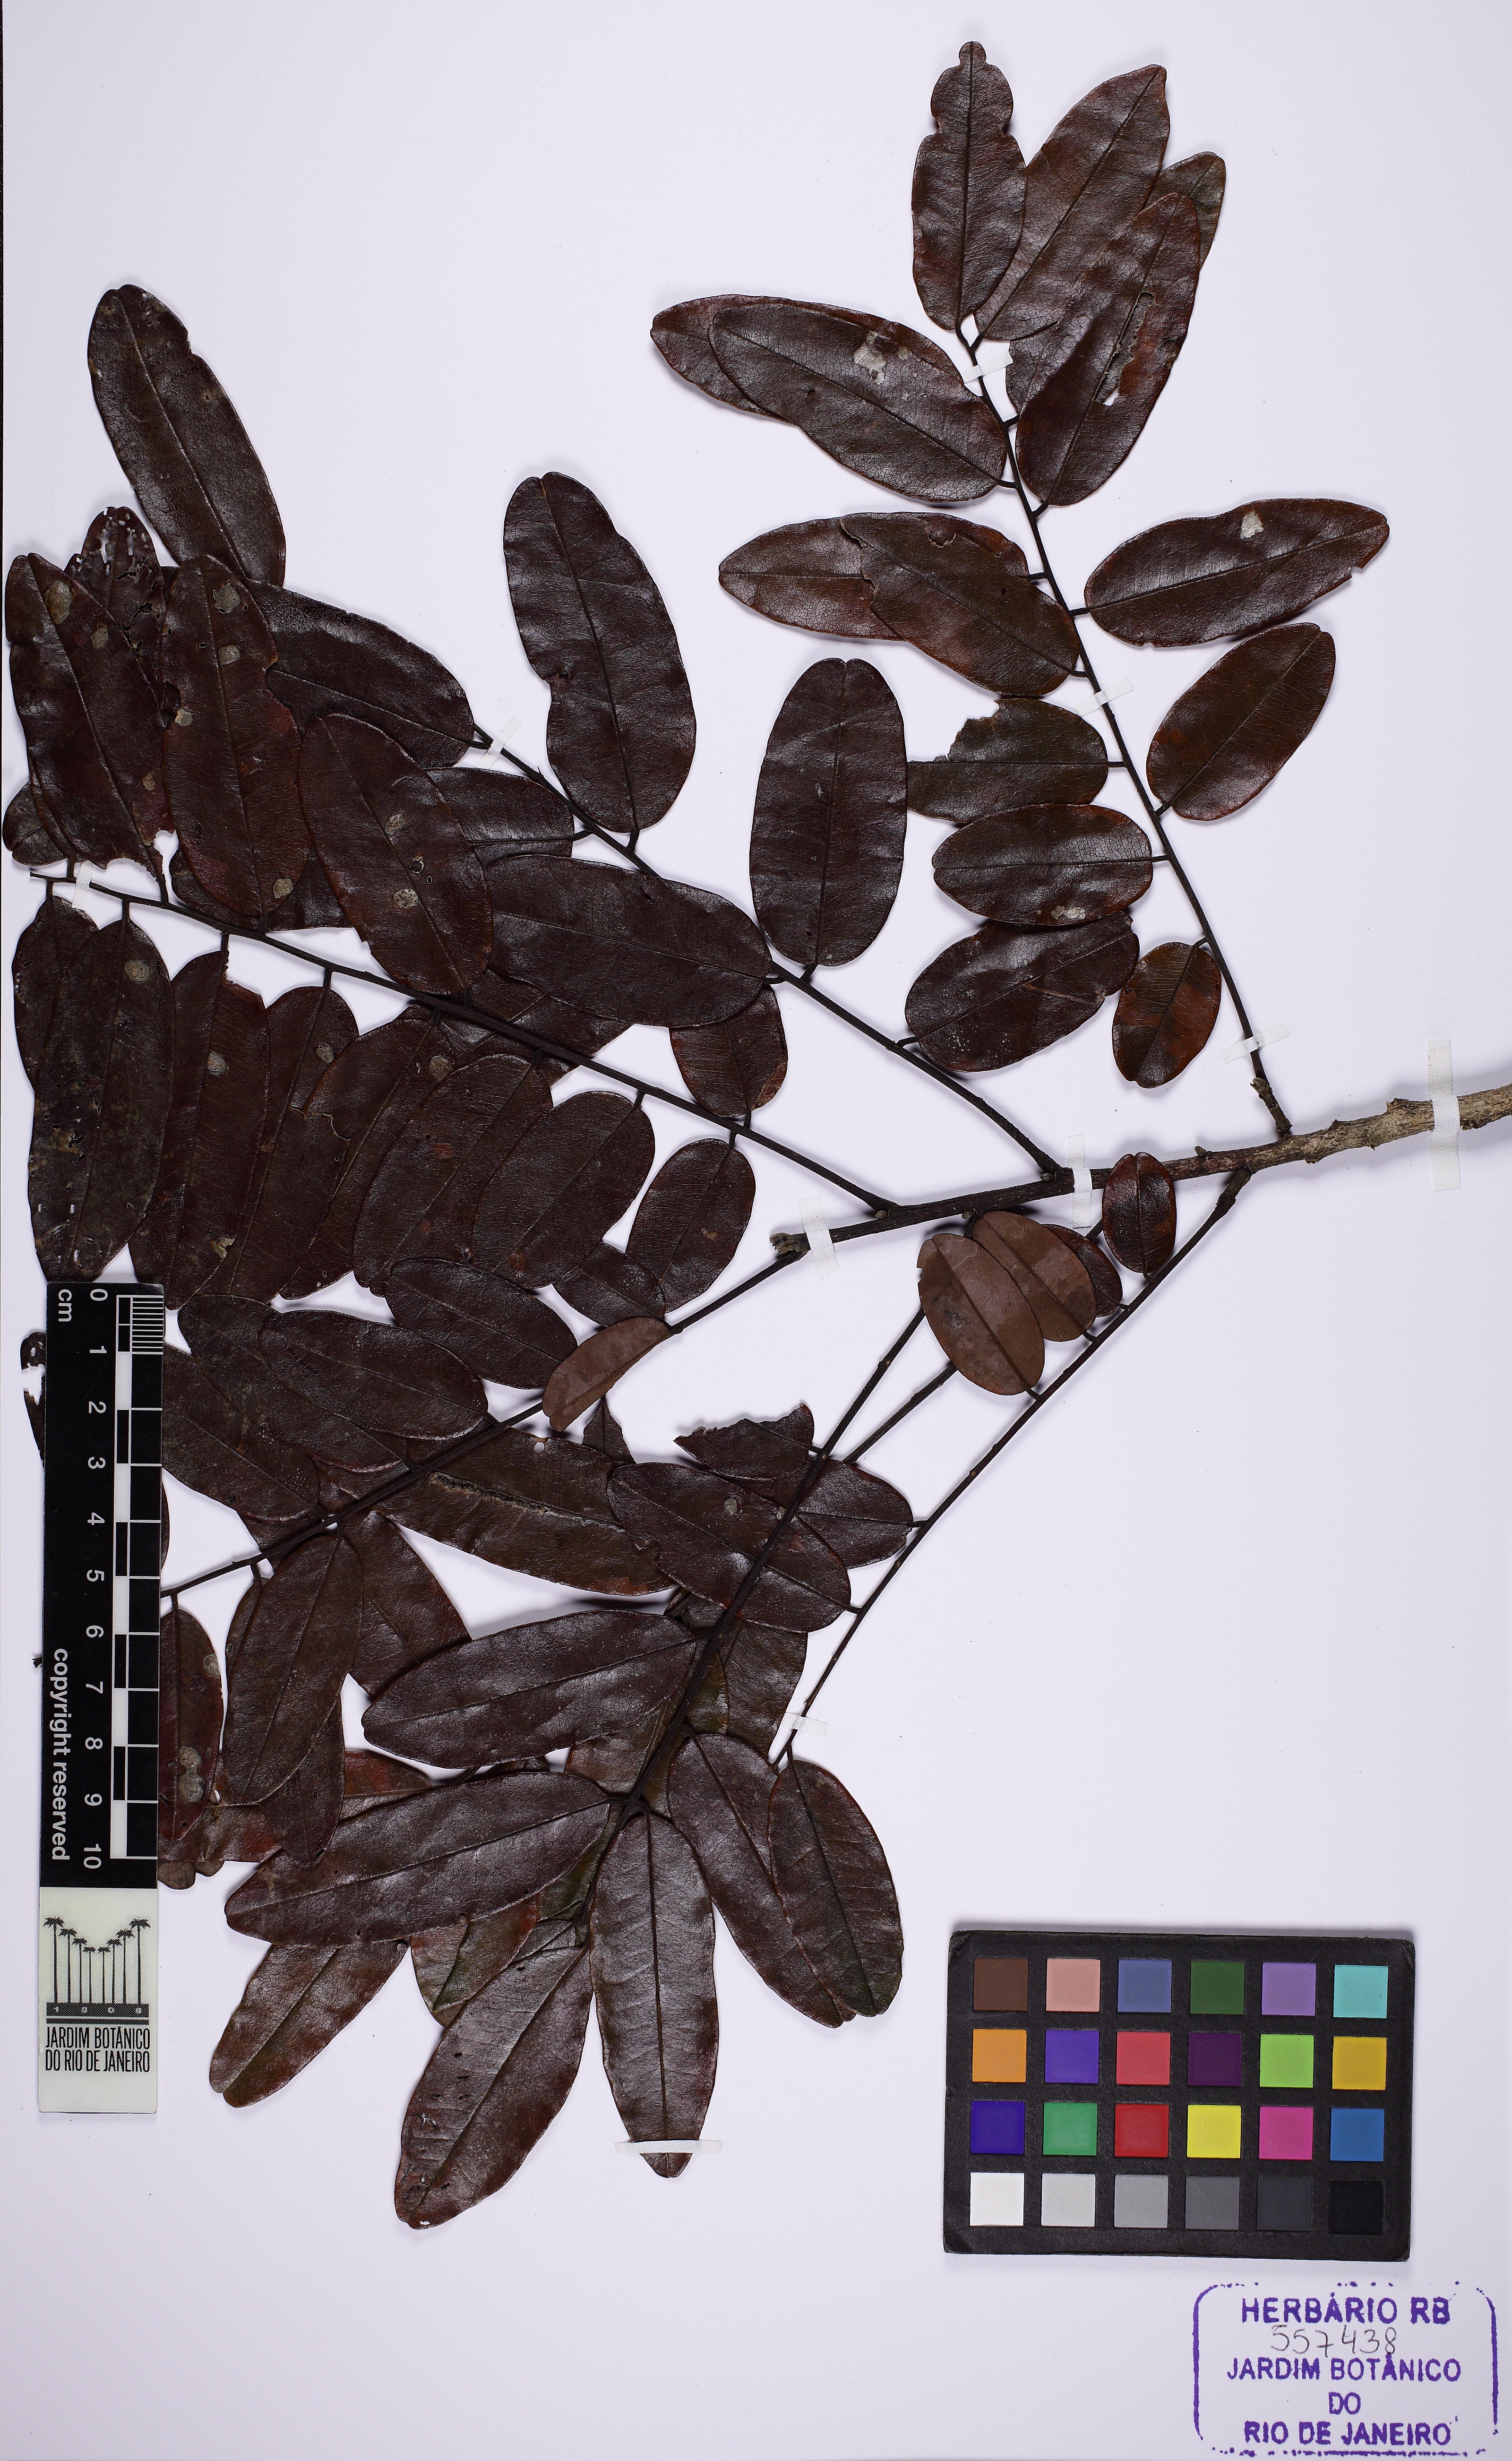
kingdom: Plantae
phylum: Tracheophyta
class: Magnoliopsida
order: Fabales
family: Fabaceae
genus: Bowdichia
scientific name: Bowdichia virgilioides
